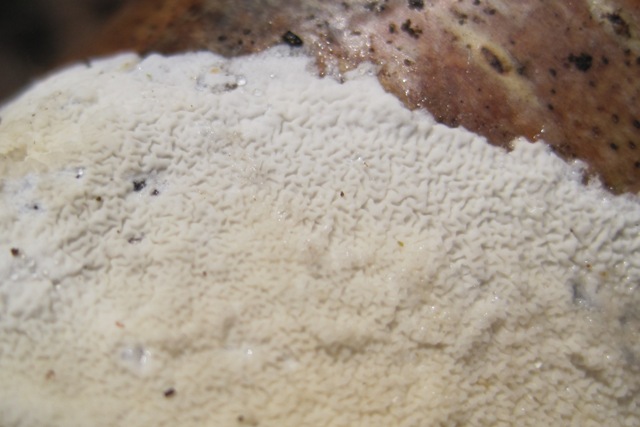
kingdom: Fungi
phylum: Basidiomycota
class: Agaricomycetes
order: Polyporales
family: Irpicaceae
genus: Byssomerulius
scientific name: Byssomerulius corium
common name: læder-åresvamp
